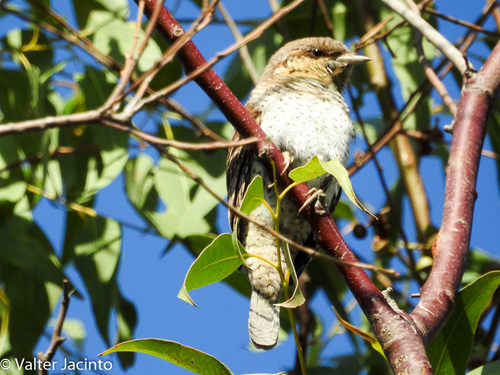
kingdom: Animalia
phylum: Chordata
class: Aves
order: Piciformes
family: Picidae
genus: Jynx
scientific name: Jynx torquilla
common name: Eurasian wryneck
